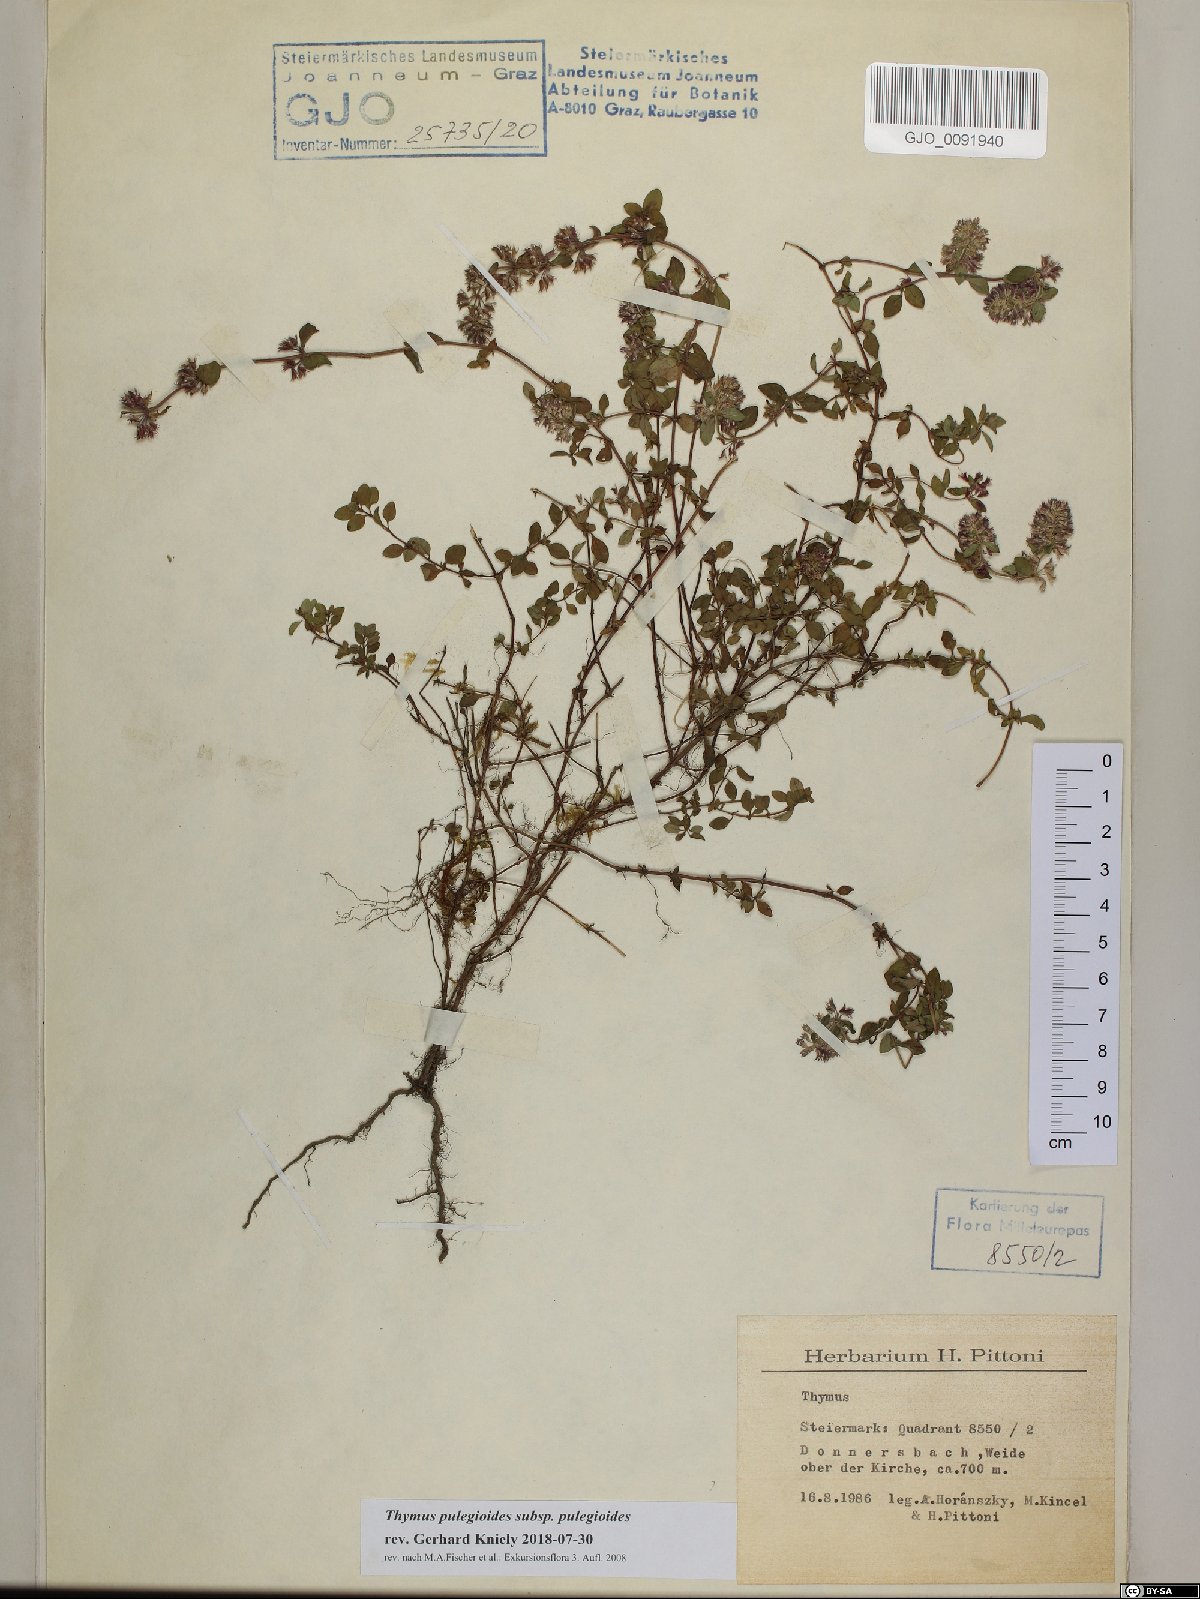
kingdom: Plantae
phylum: Tracheophyta
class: Magnoliopsida
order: Lamiales
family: Lamiaceae
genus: Thymus
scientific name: Thymus pulegioides
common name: Large thyme
